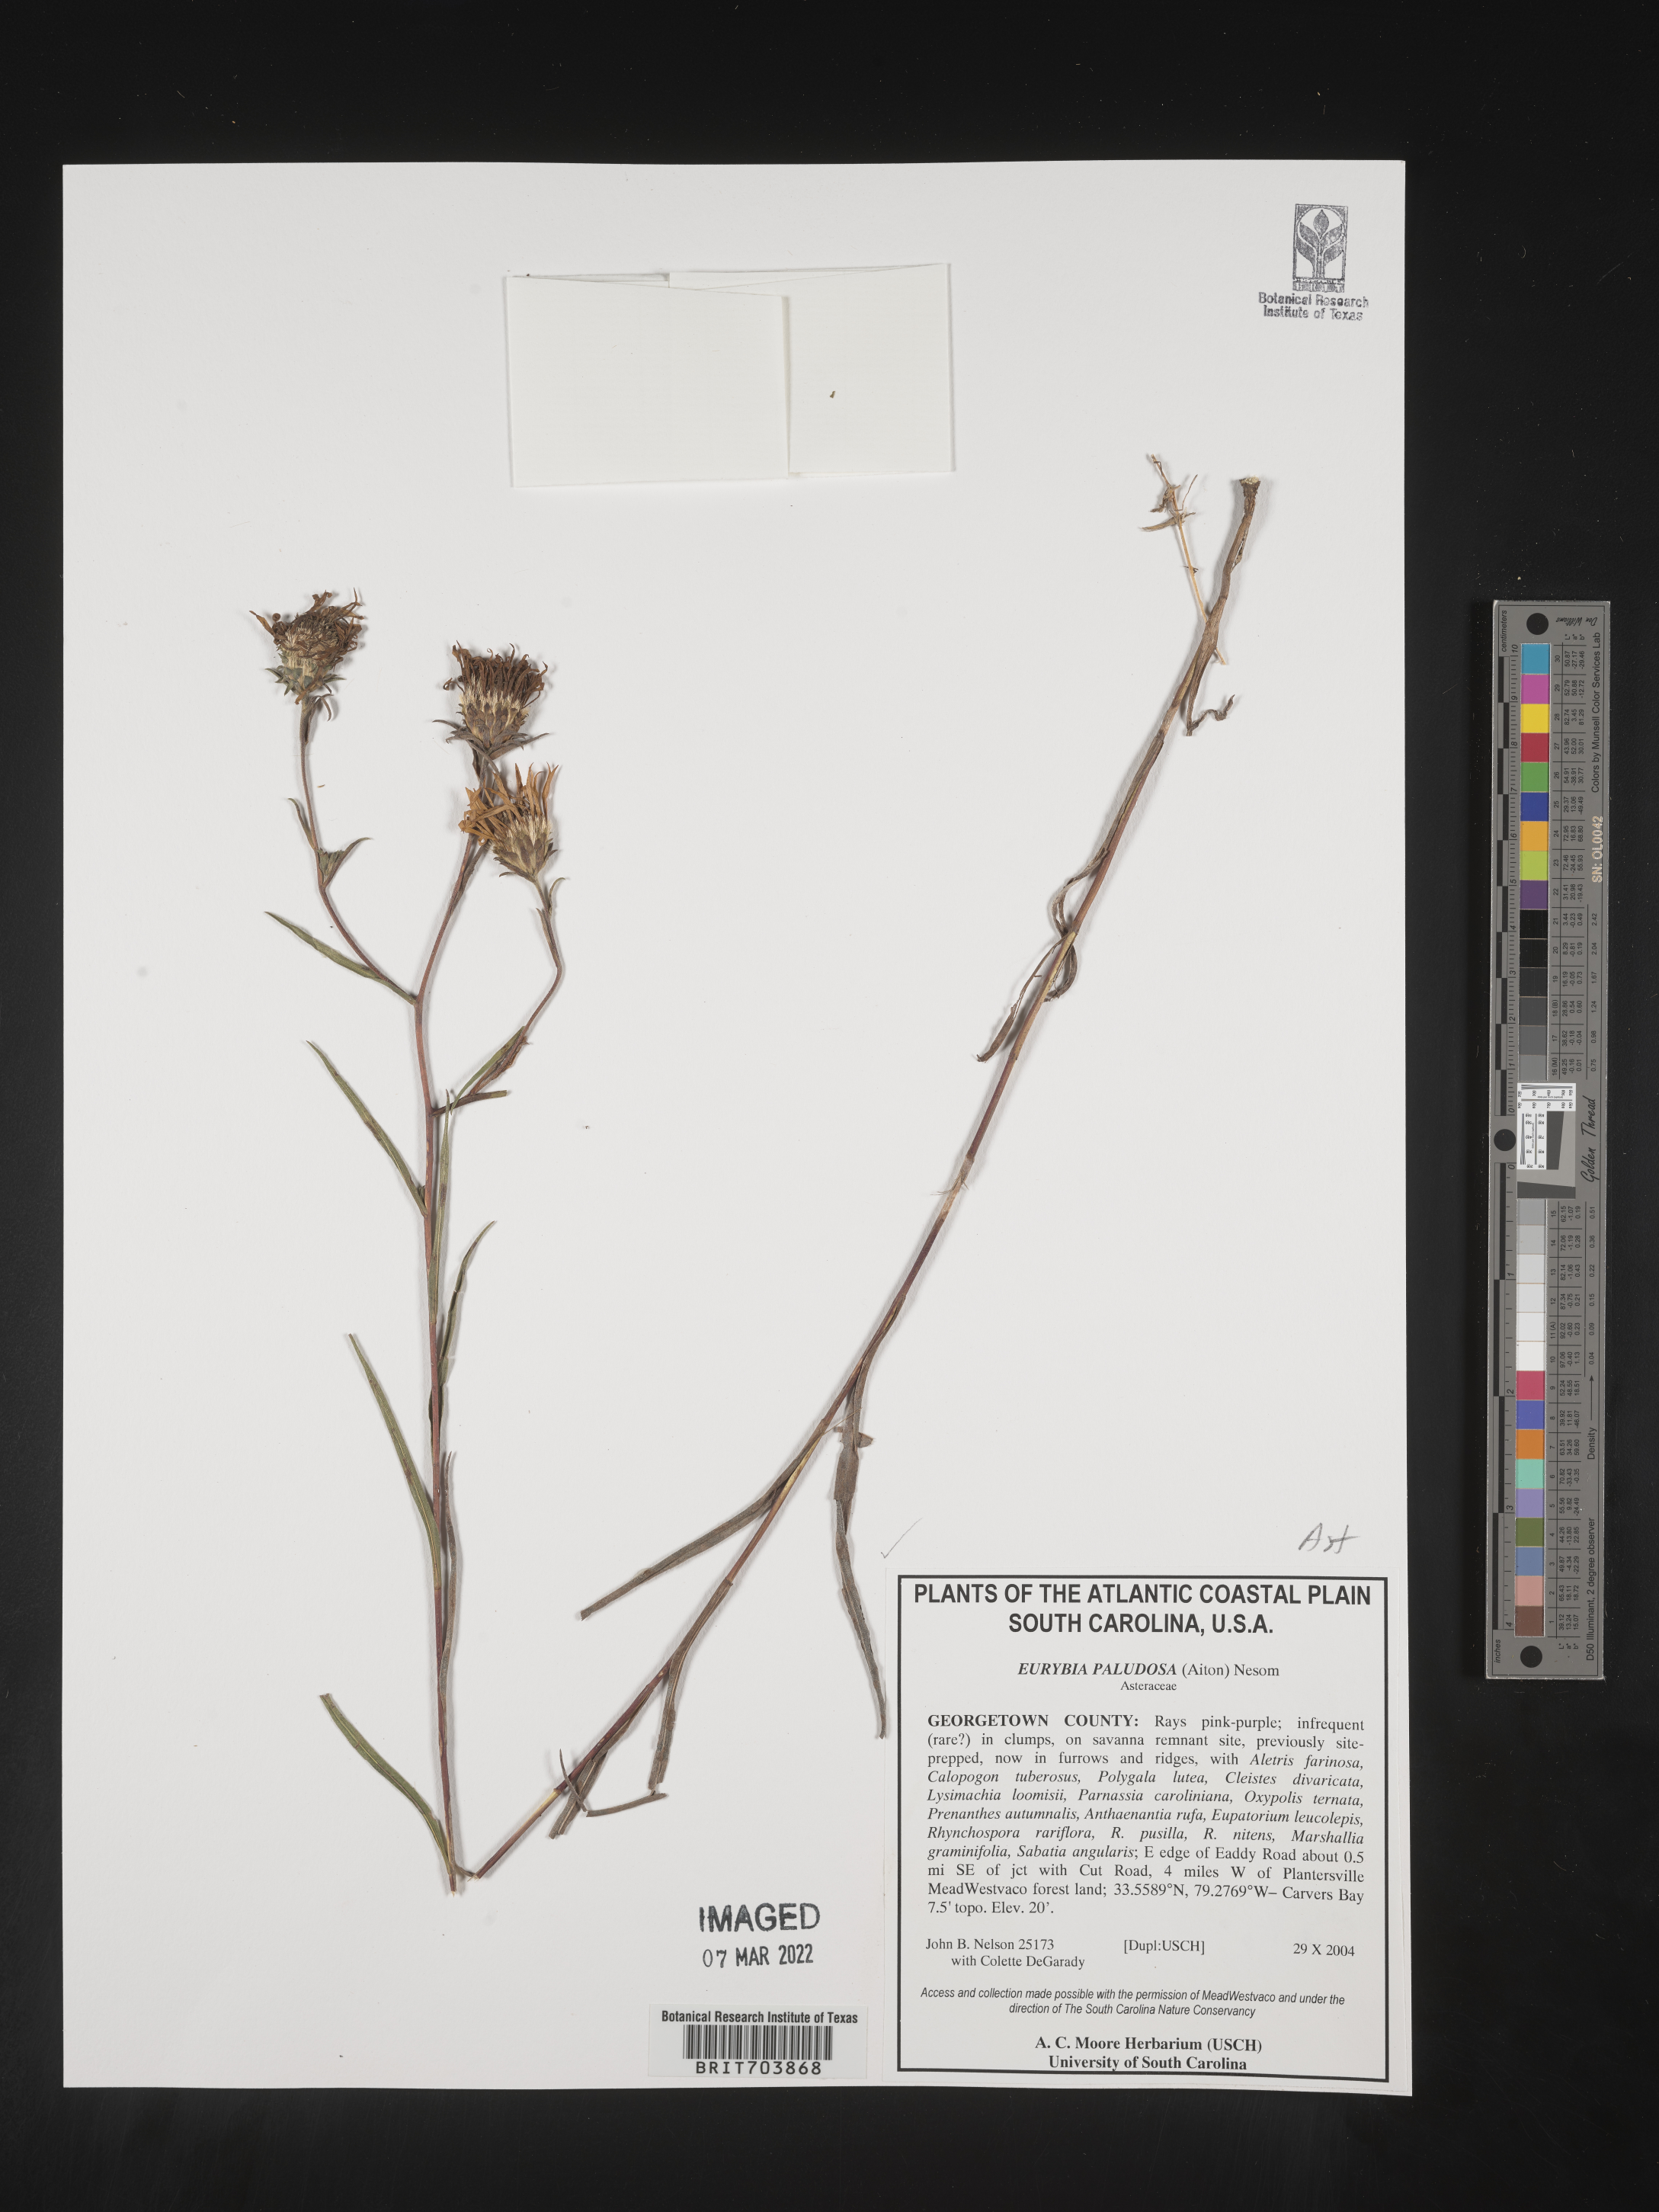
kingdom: Plantae
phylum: Tracheophyta
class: Magnoliopsida
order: Asterales
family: Asteraceae
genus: Eurybia
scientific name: Eurybia paludosa
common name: Southern swamp aster
